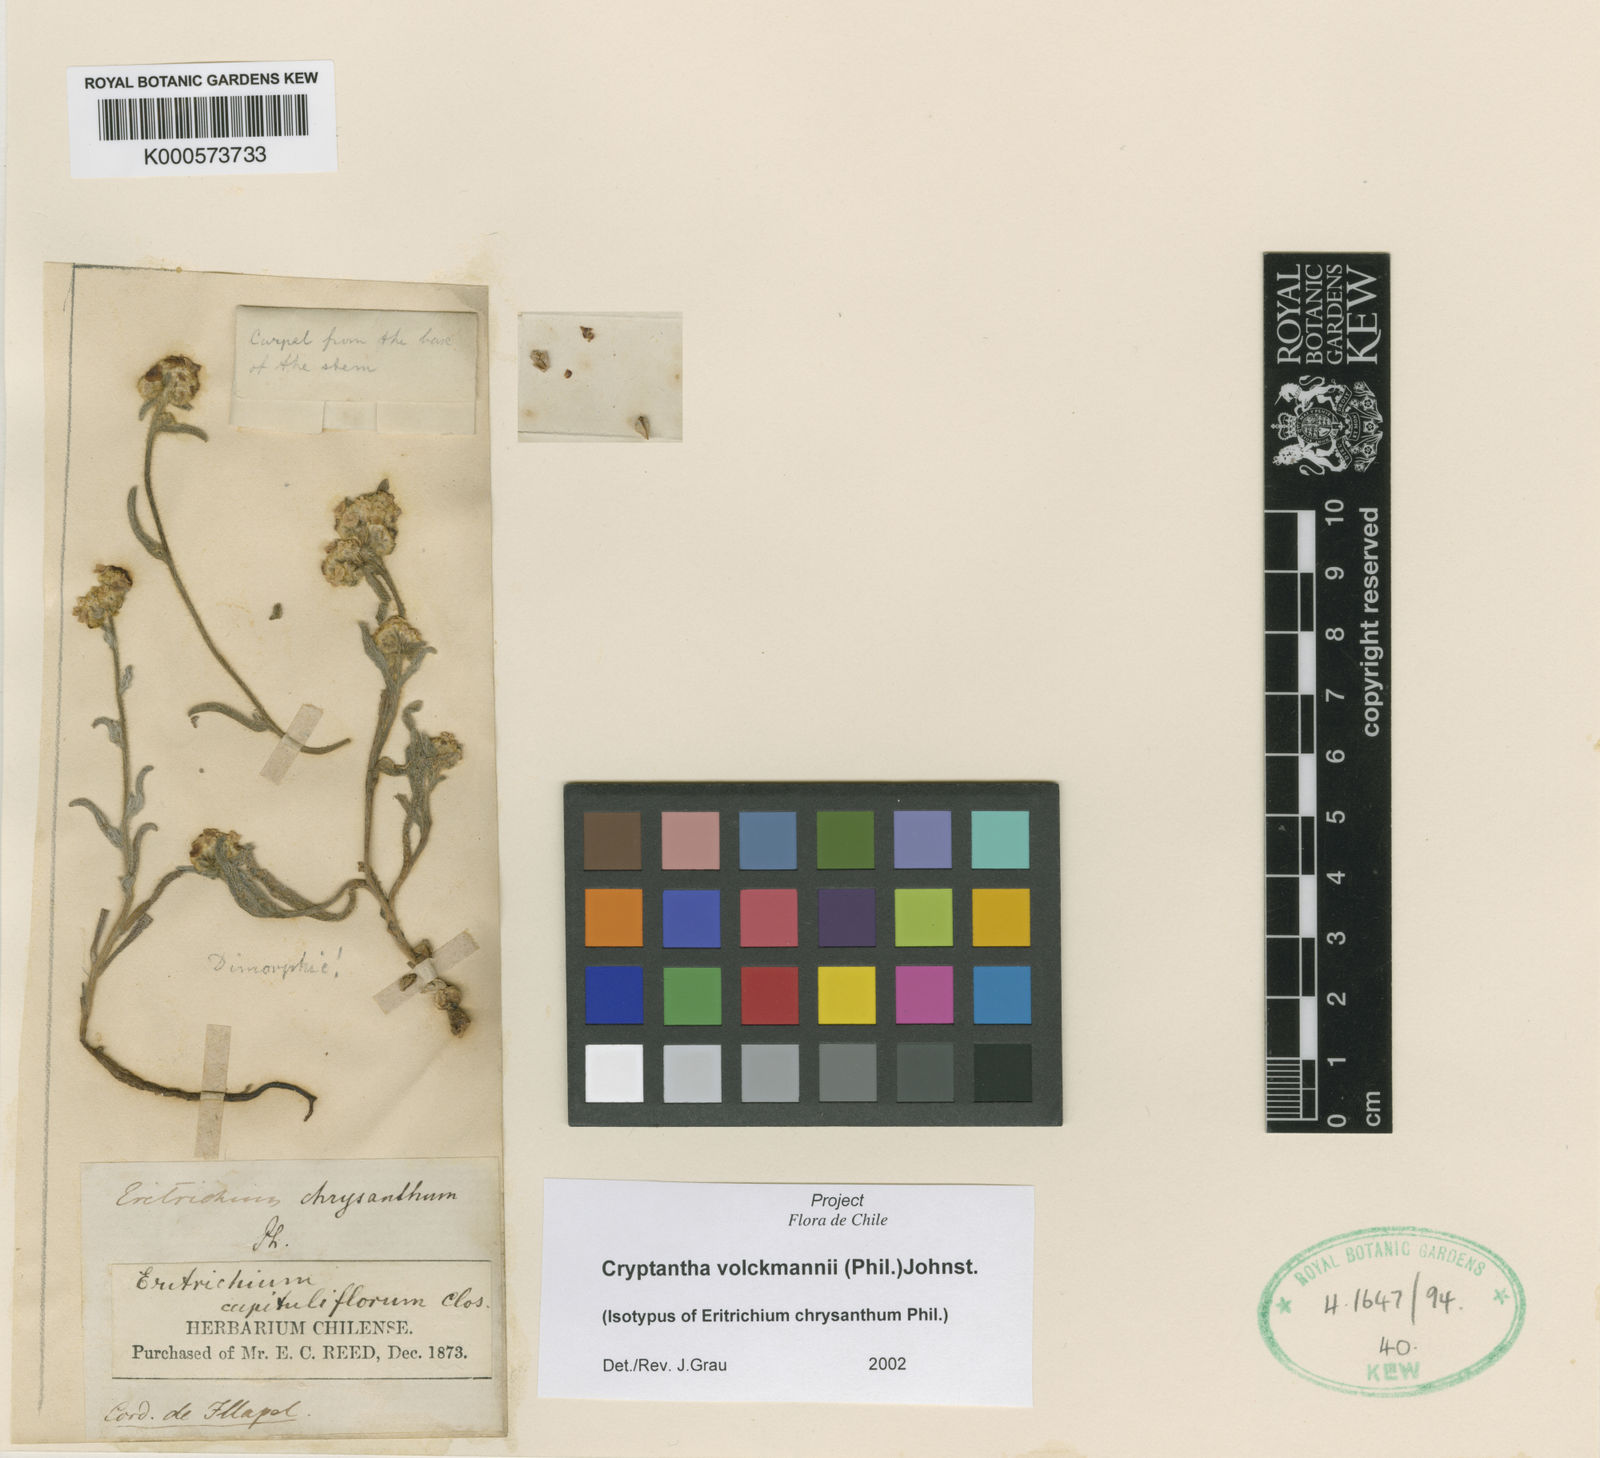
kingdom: Plantae
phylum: Tracheophyta
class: Magnoliopsida
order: Boraginales
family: Boraginaceae
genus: Cryptantha
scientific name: Cryptantha volckmannii
